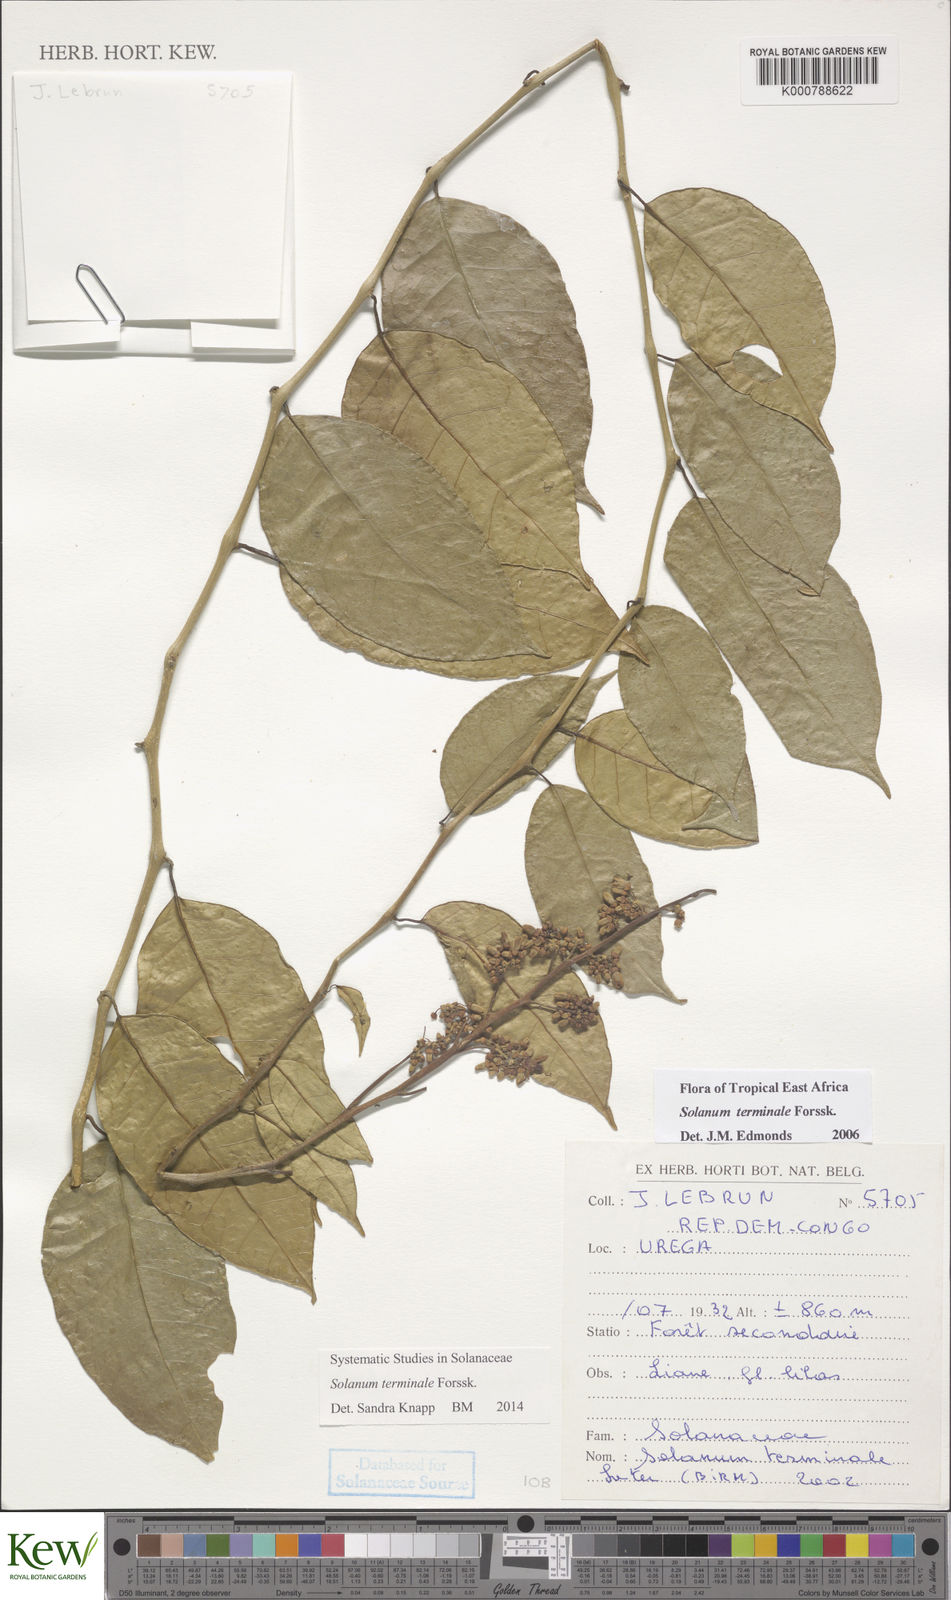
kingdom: Plantae
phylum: Tracheophyta
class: Magnoliopsida
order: Solanales
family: Solanaceae
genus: Solanum
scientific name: Solanum terminale
